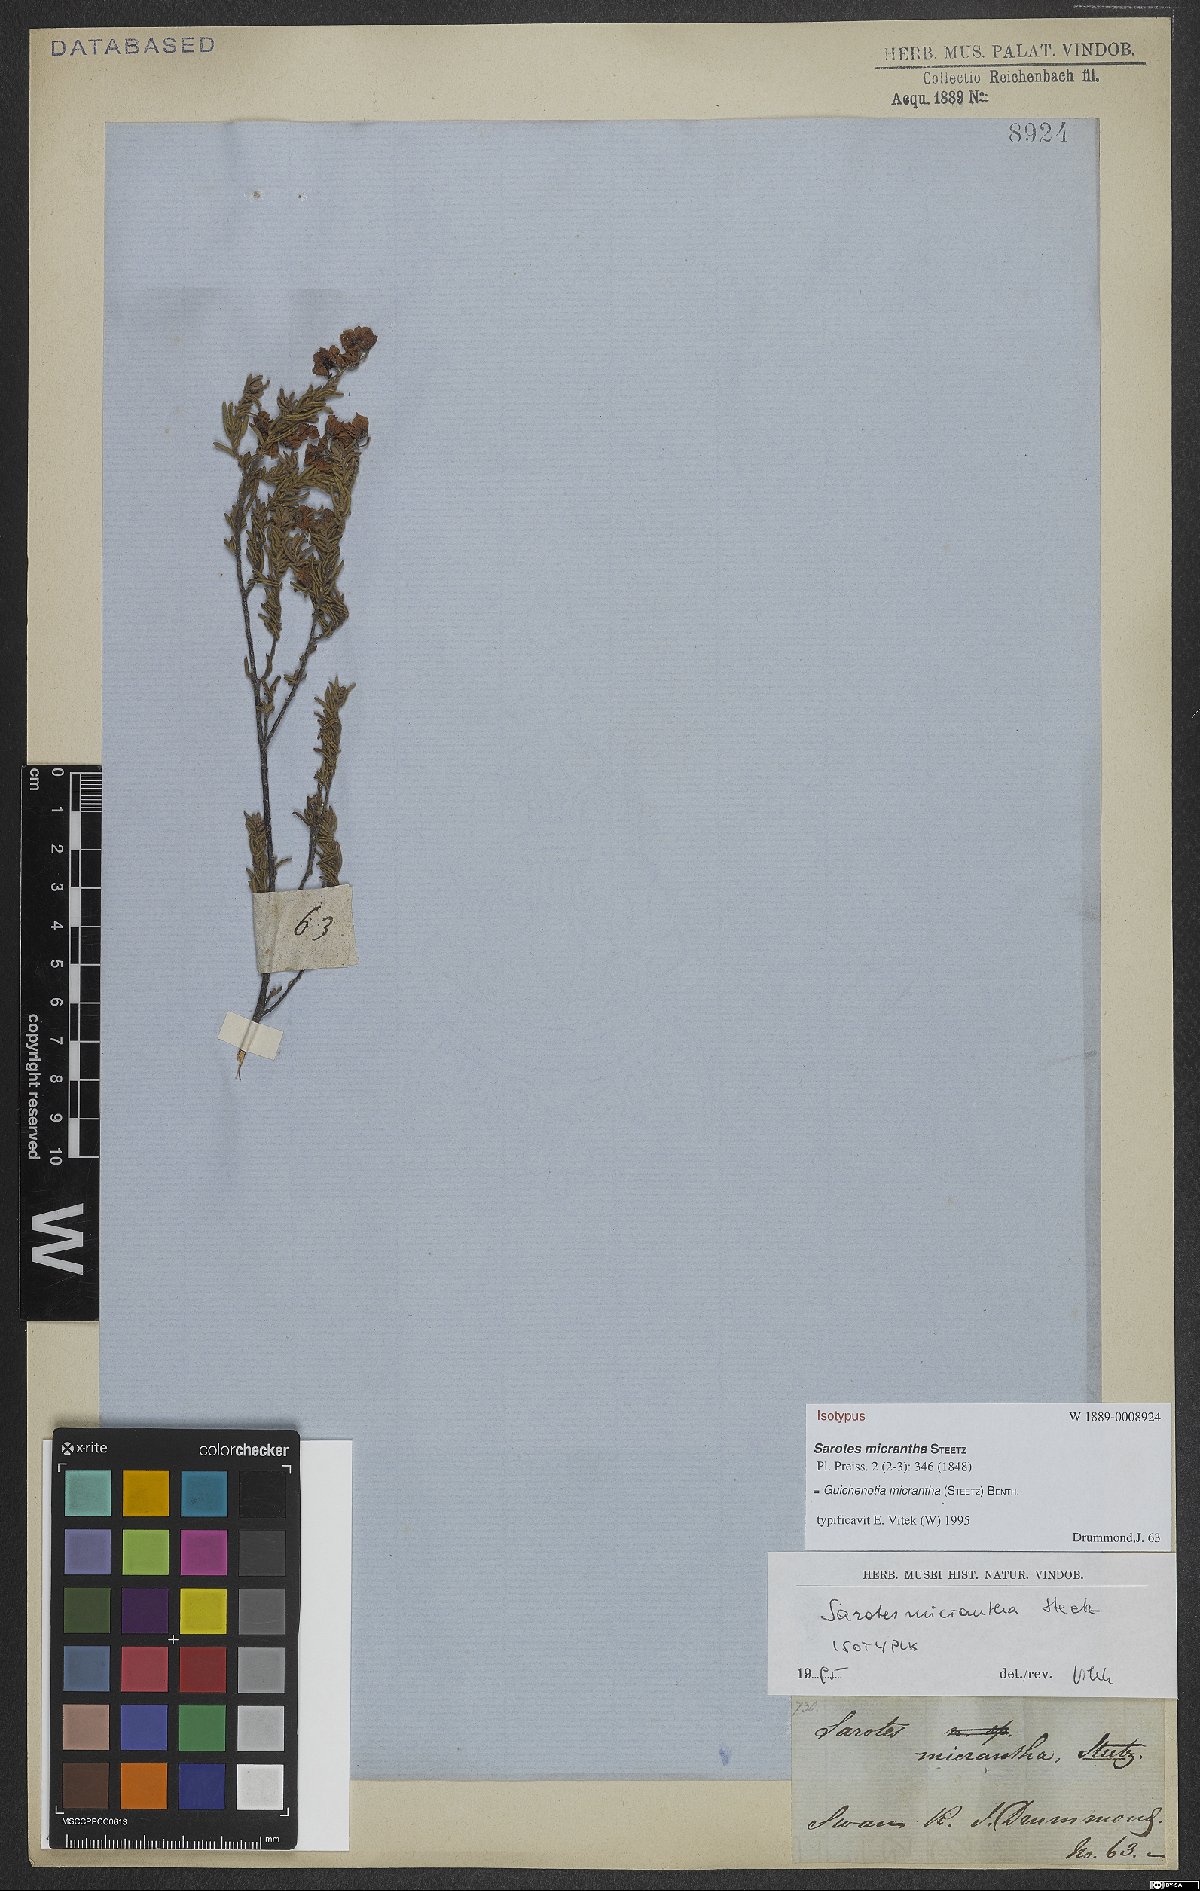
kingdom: Plantae
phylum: Tracheophyta
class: Magnoliopsida
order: Malvales
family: Malvaceae
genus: Guichenotia
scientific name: Guichenotia micrantha
